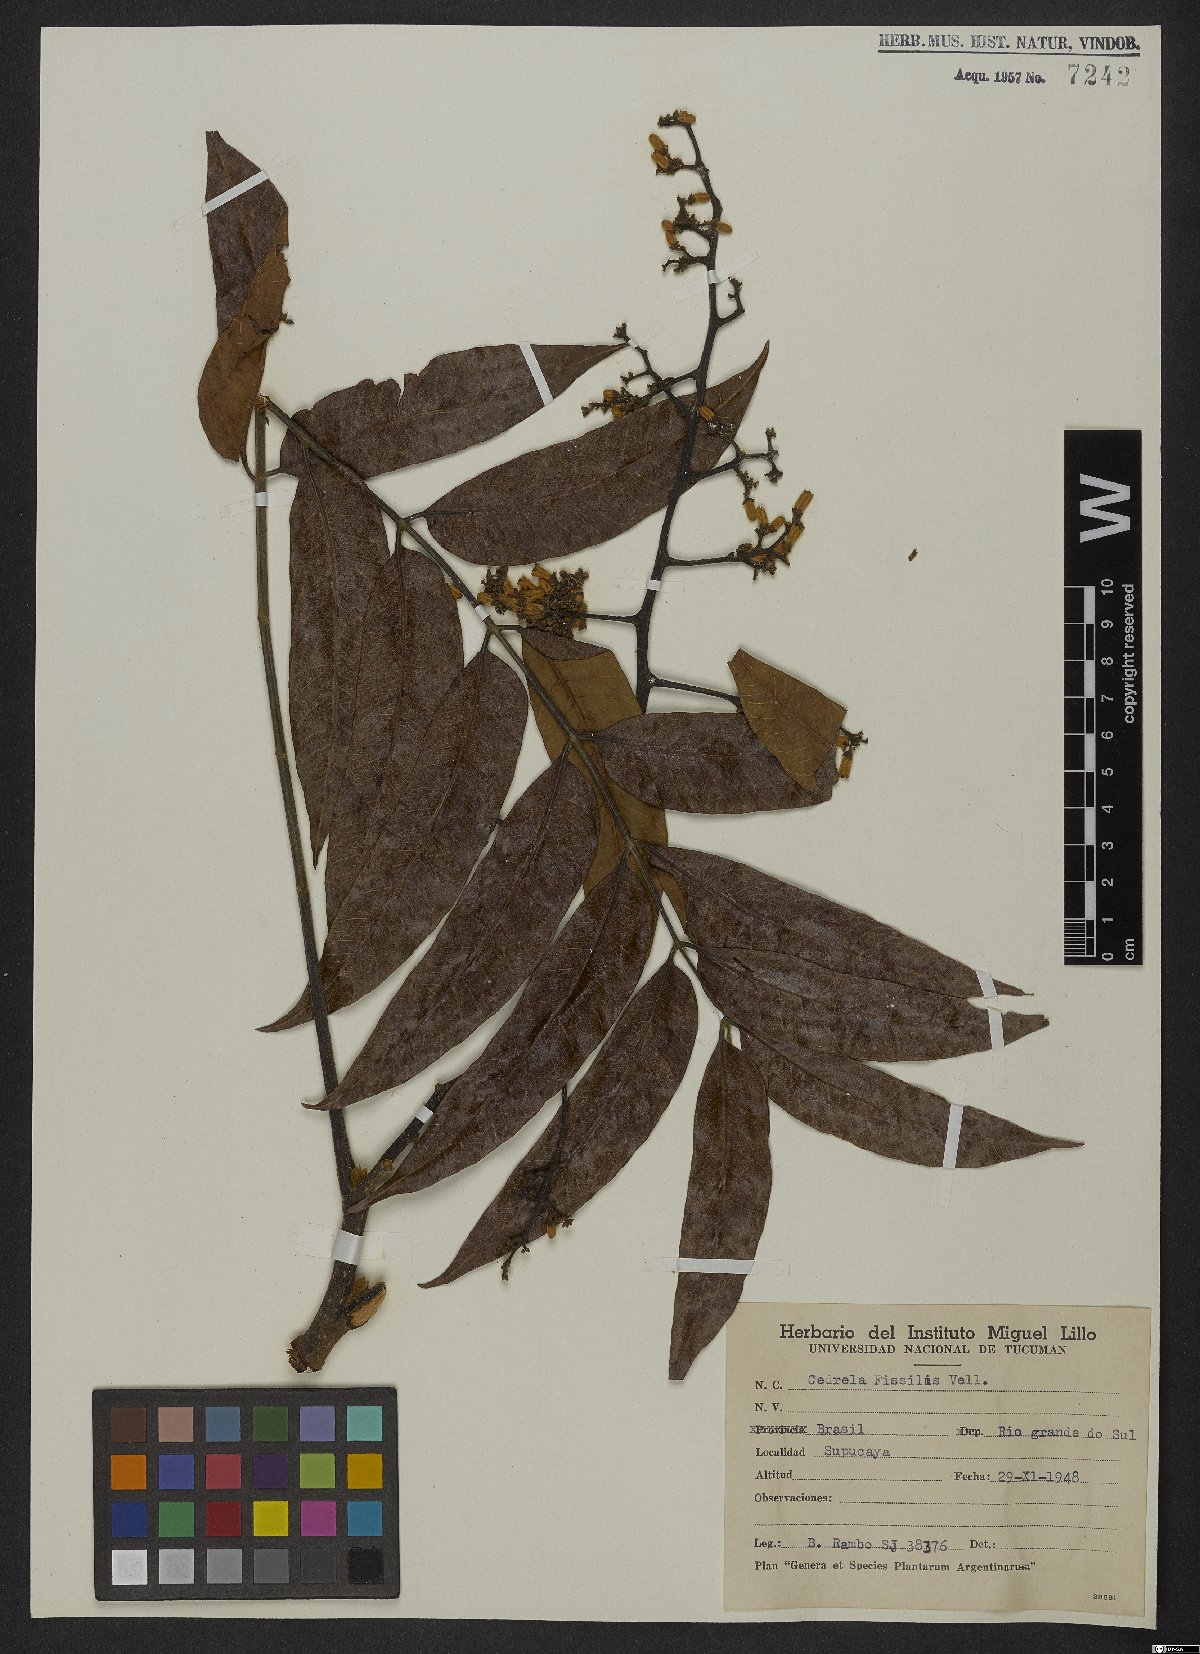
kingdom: Plantae
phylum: Tracheophyta
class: Magnoliopsida
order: Sapindales
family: Meliaceae
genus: Cedrela
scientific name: Cedrela fissilis
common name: Argentine cedar
